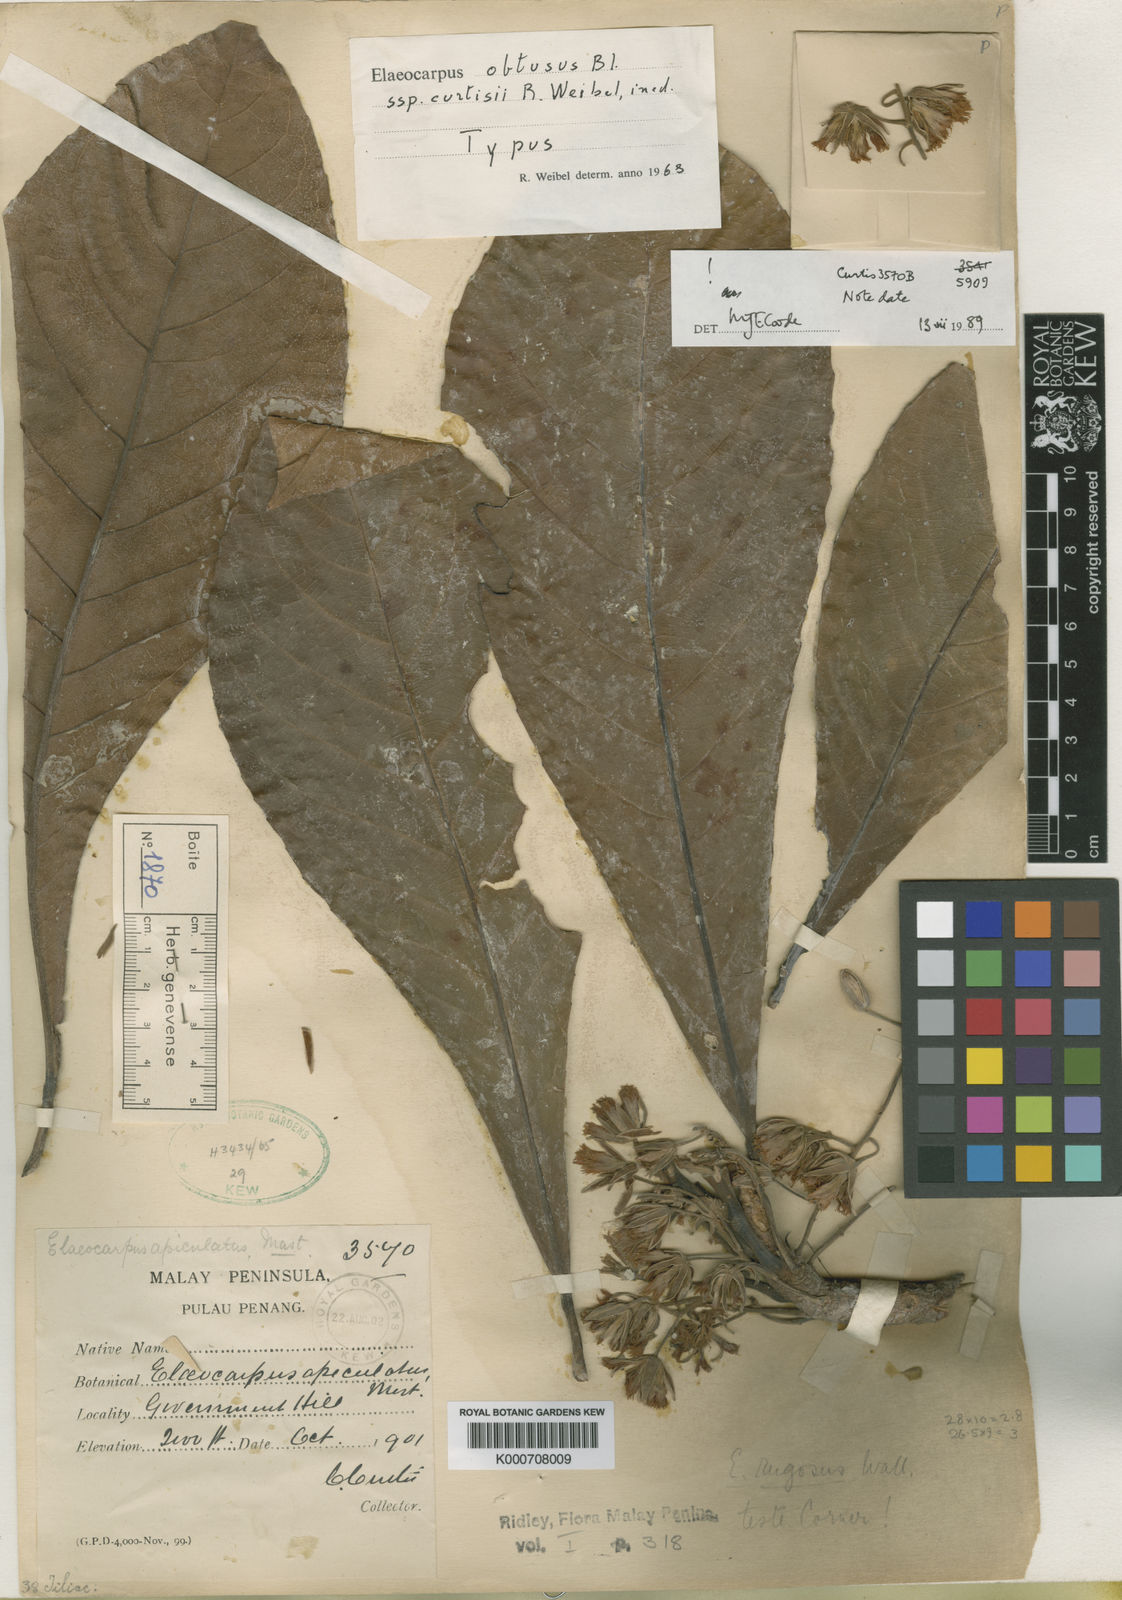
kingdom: Plantae
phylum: Tracheophyta
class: Magnoliopsida
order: Oxalidales
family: Elaeocarpaceae
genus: Elaeocarpus
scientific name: Elaeocarpus obtusus
